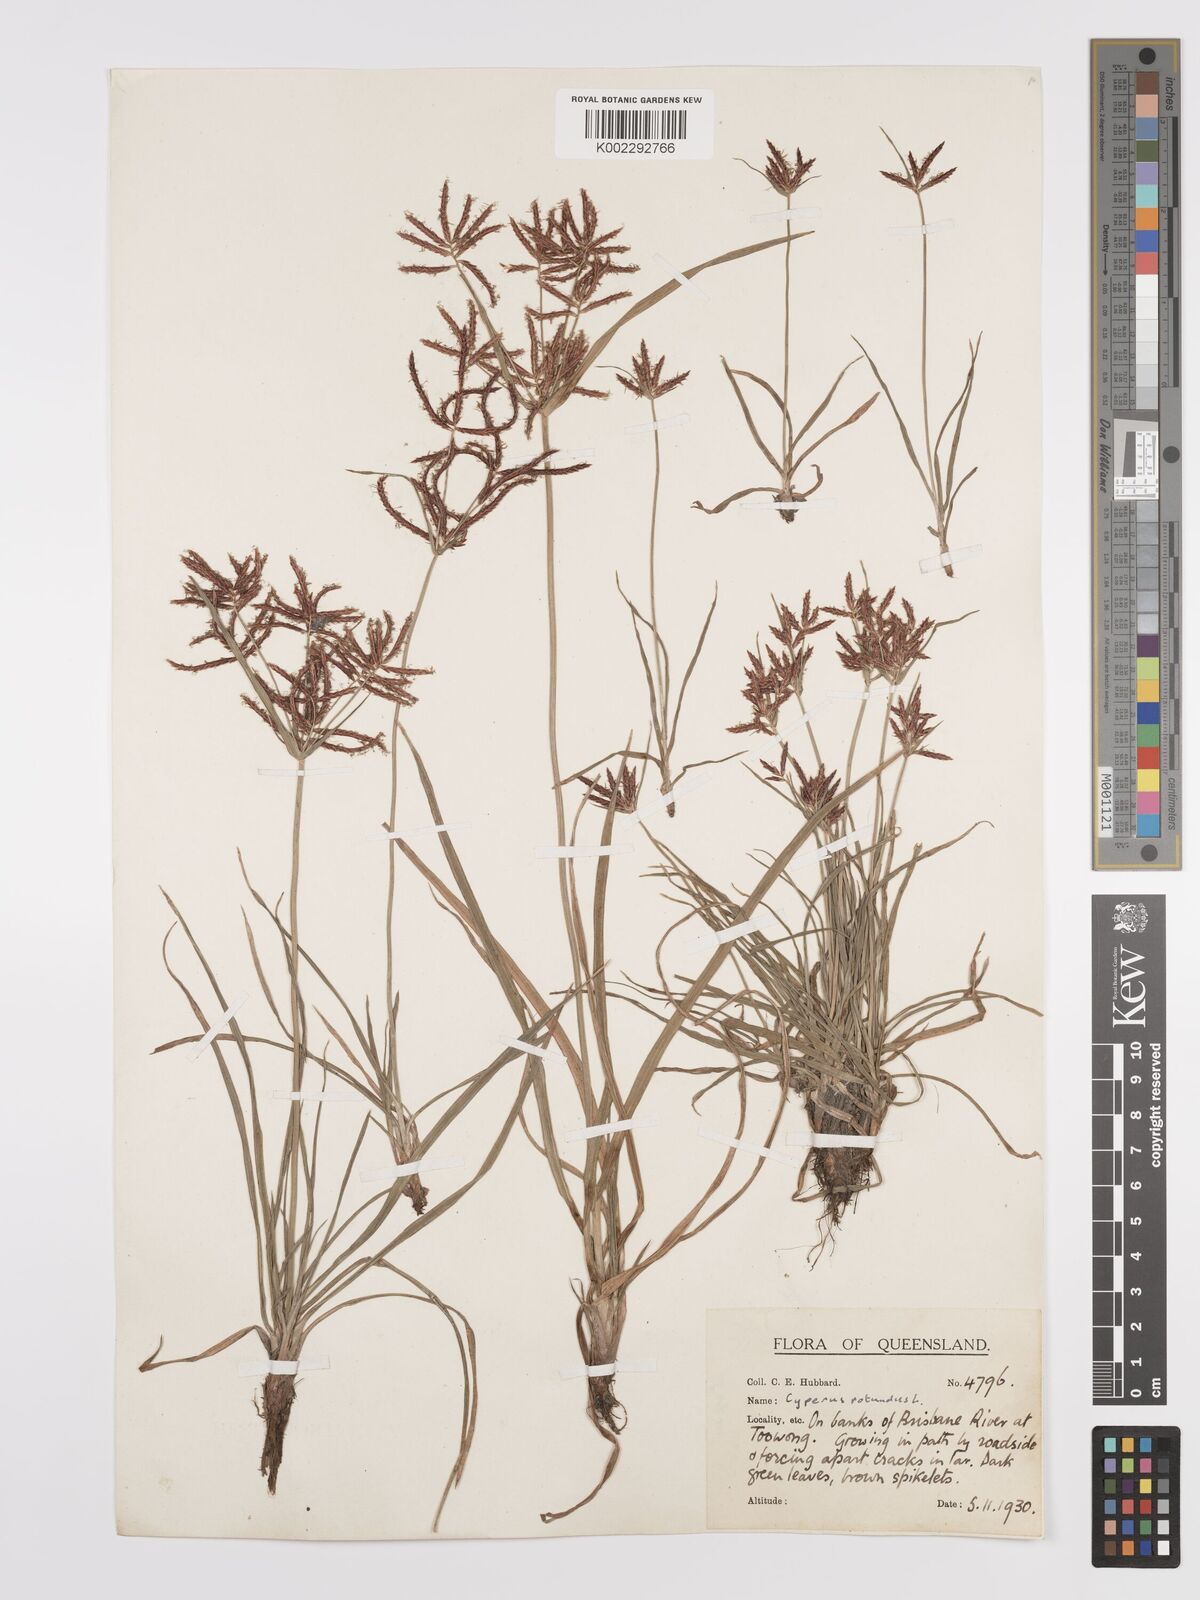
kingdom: Plantae
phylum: Tracheophyta
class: Liliopsida
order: Poales
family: Cyperaceae
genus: Cyperus
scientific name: Cyperus rotundus
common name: Nutgrass
